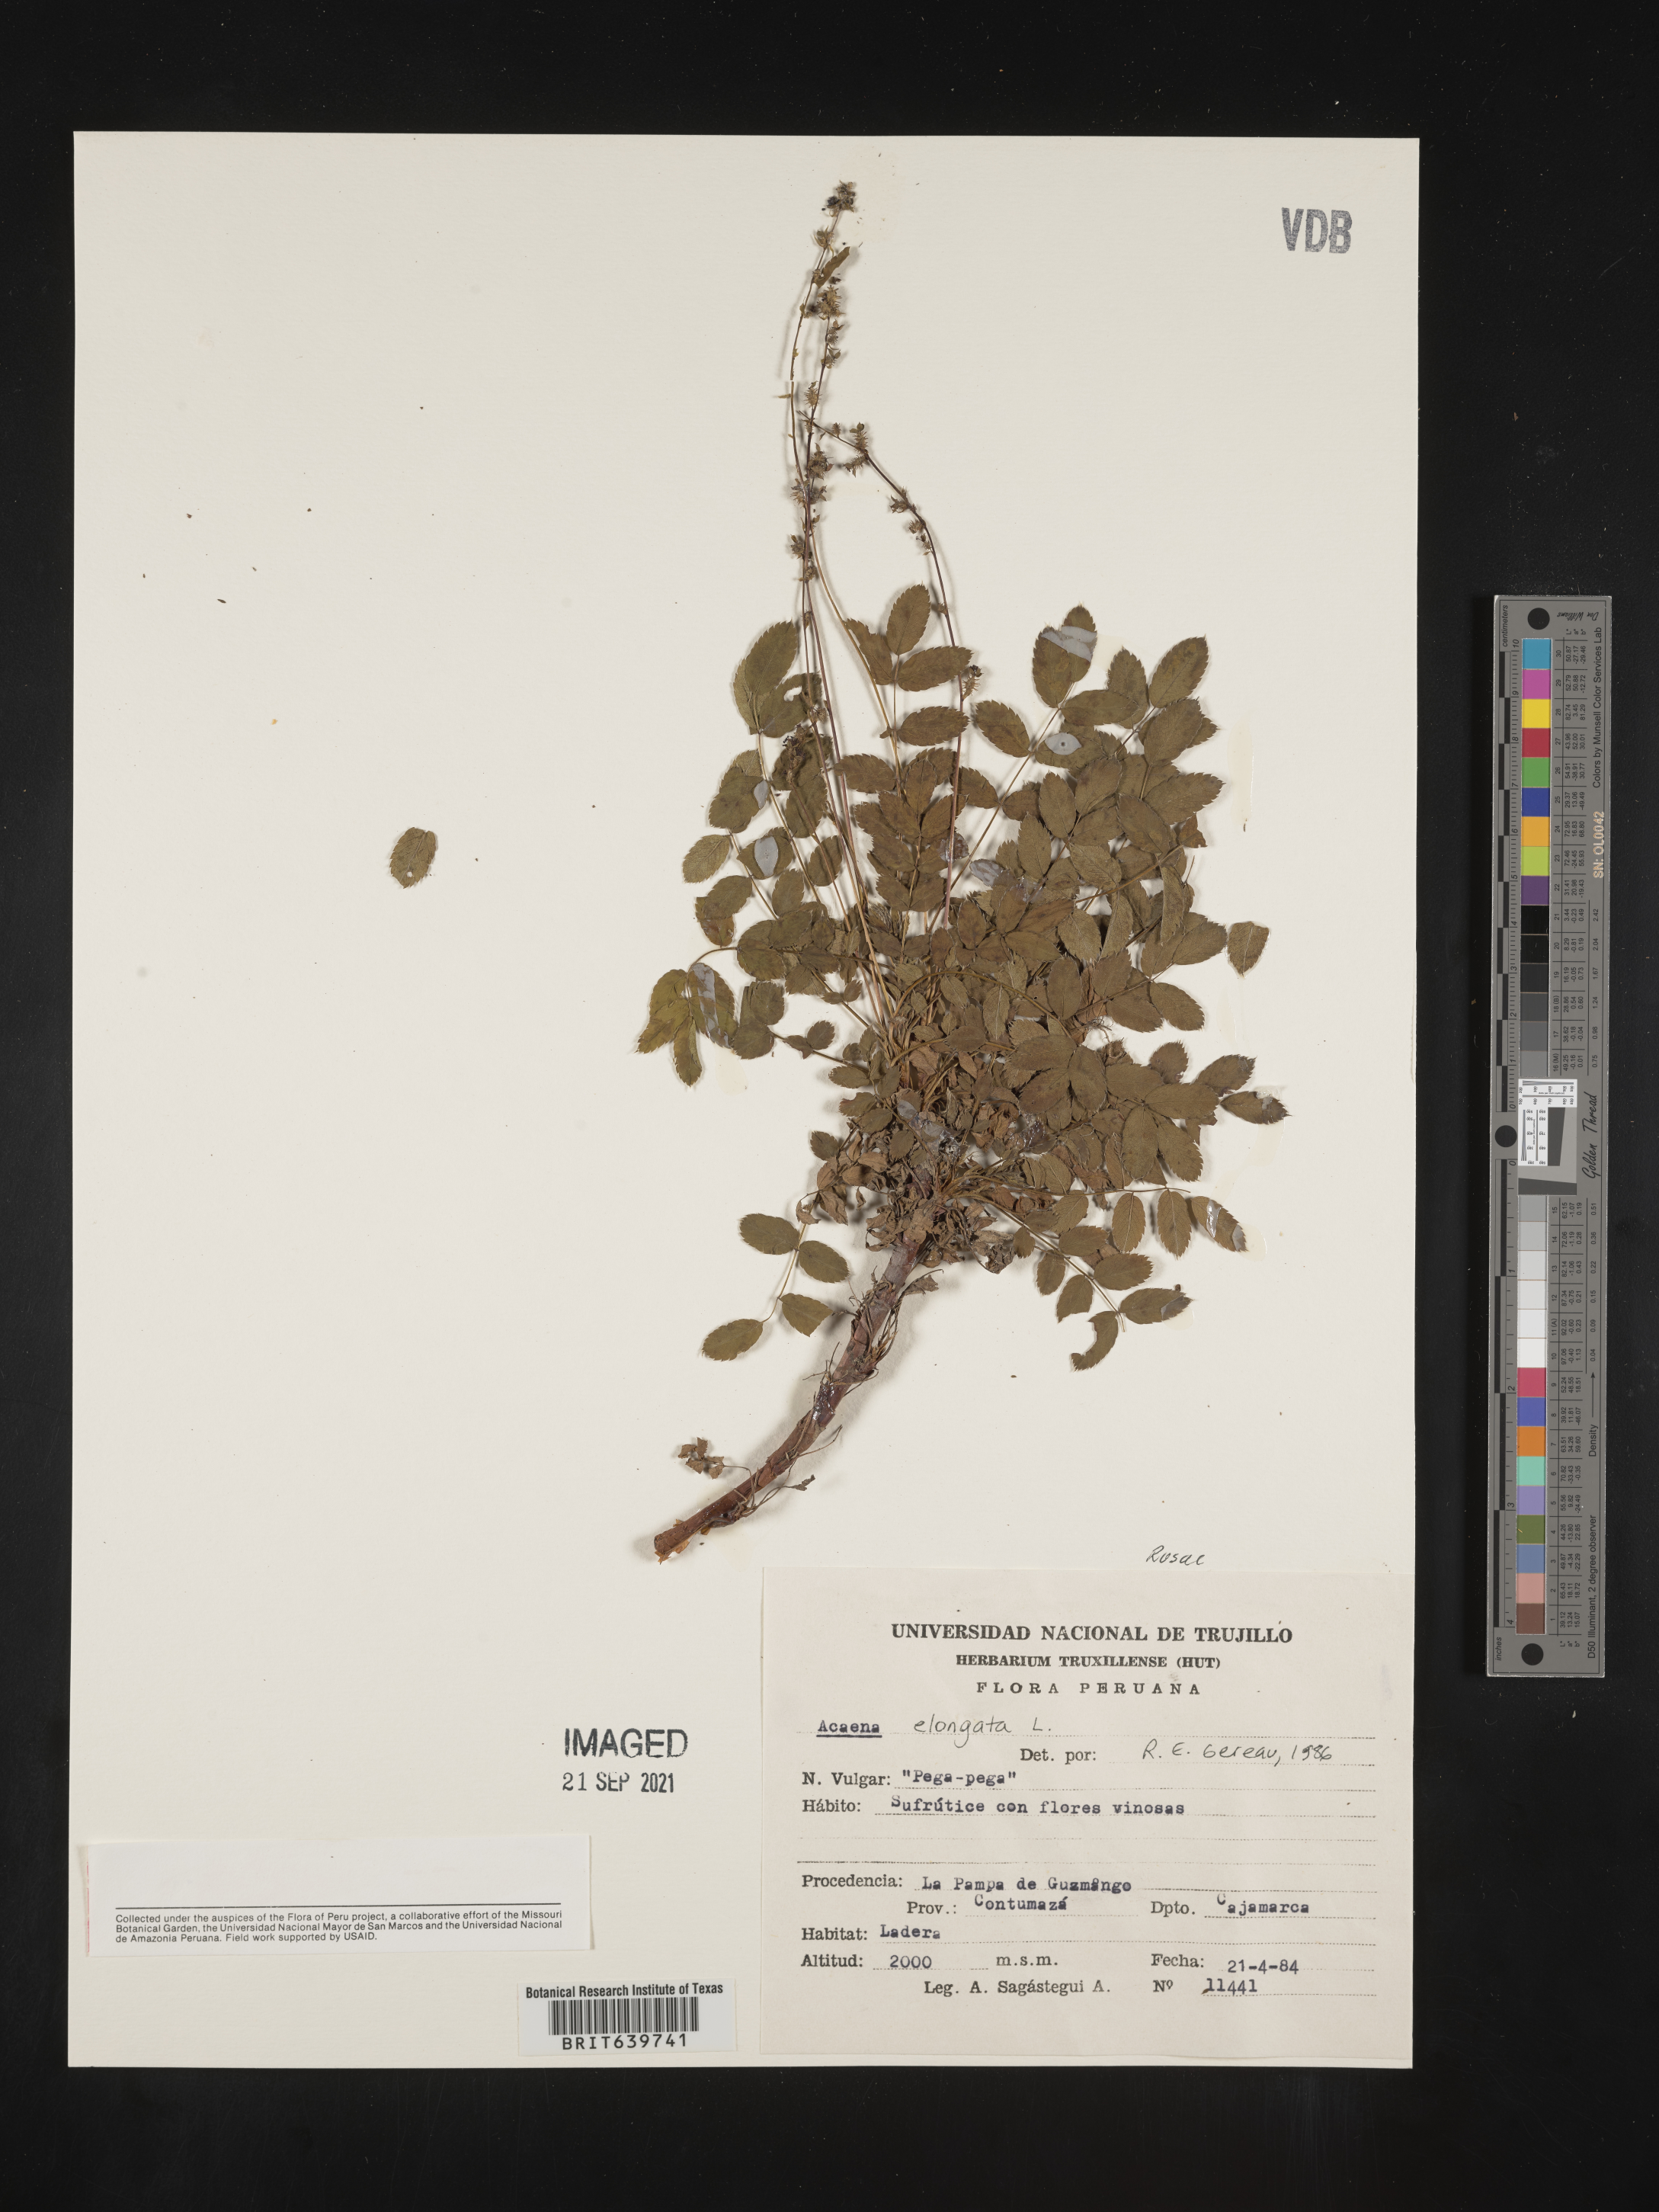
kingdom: Plantae
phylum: Tracheophyta
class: Magnoliopsida
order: Rosales
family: Rosaceae
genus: Acaena
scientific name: Acaena
